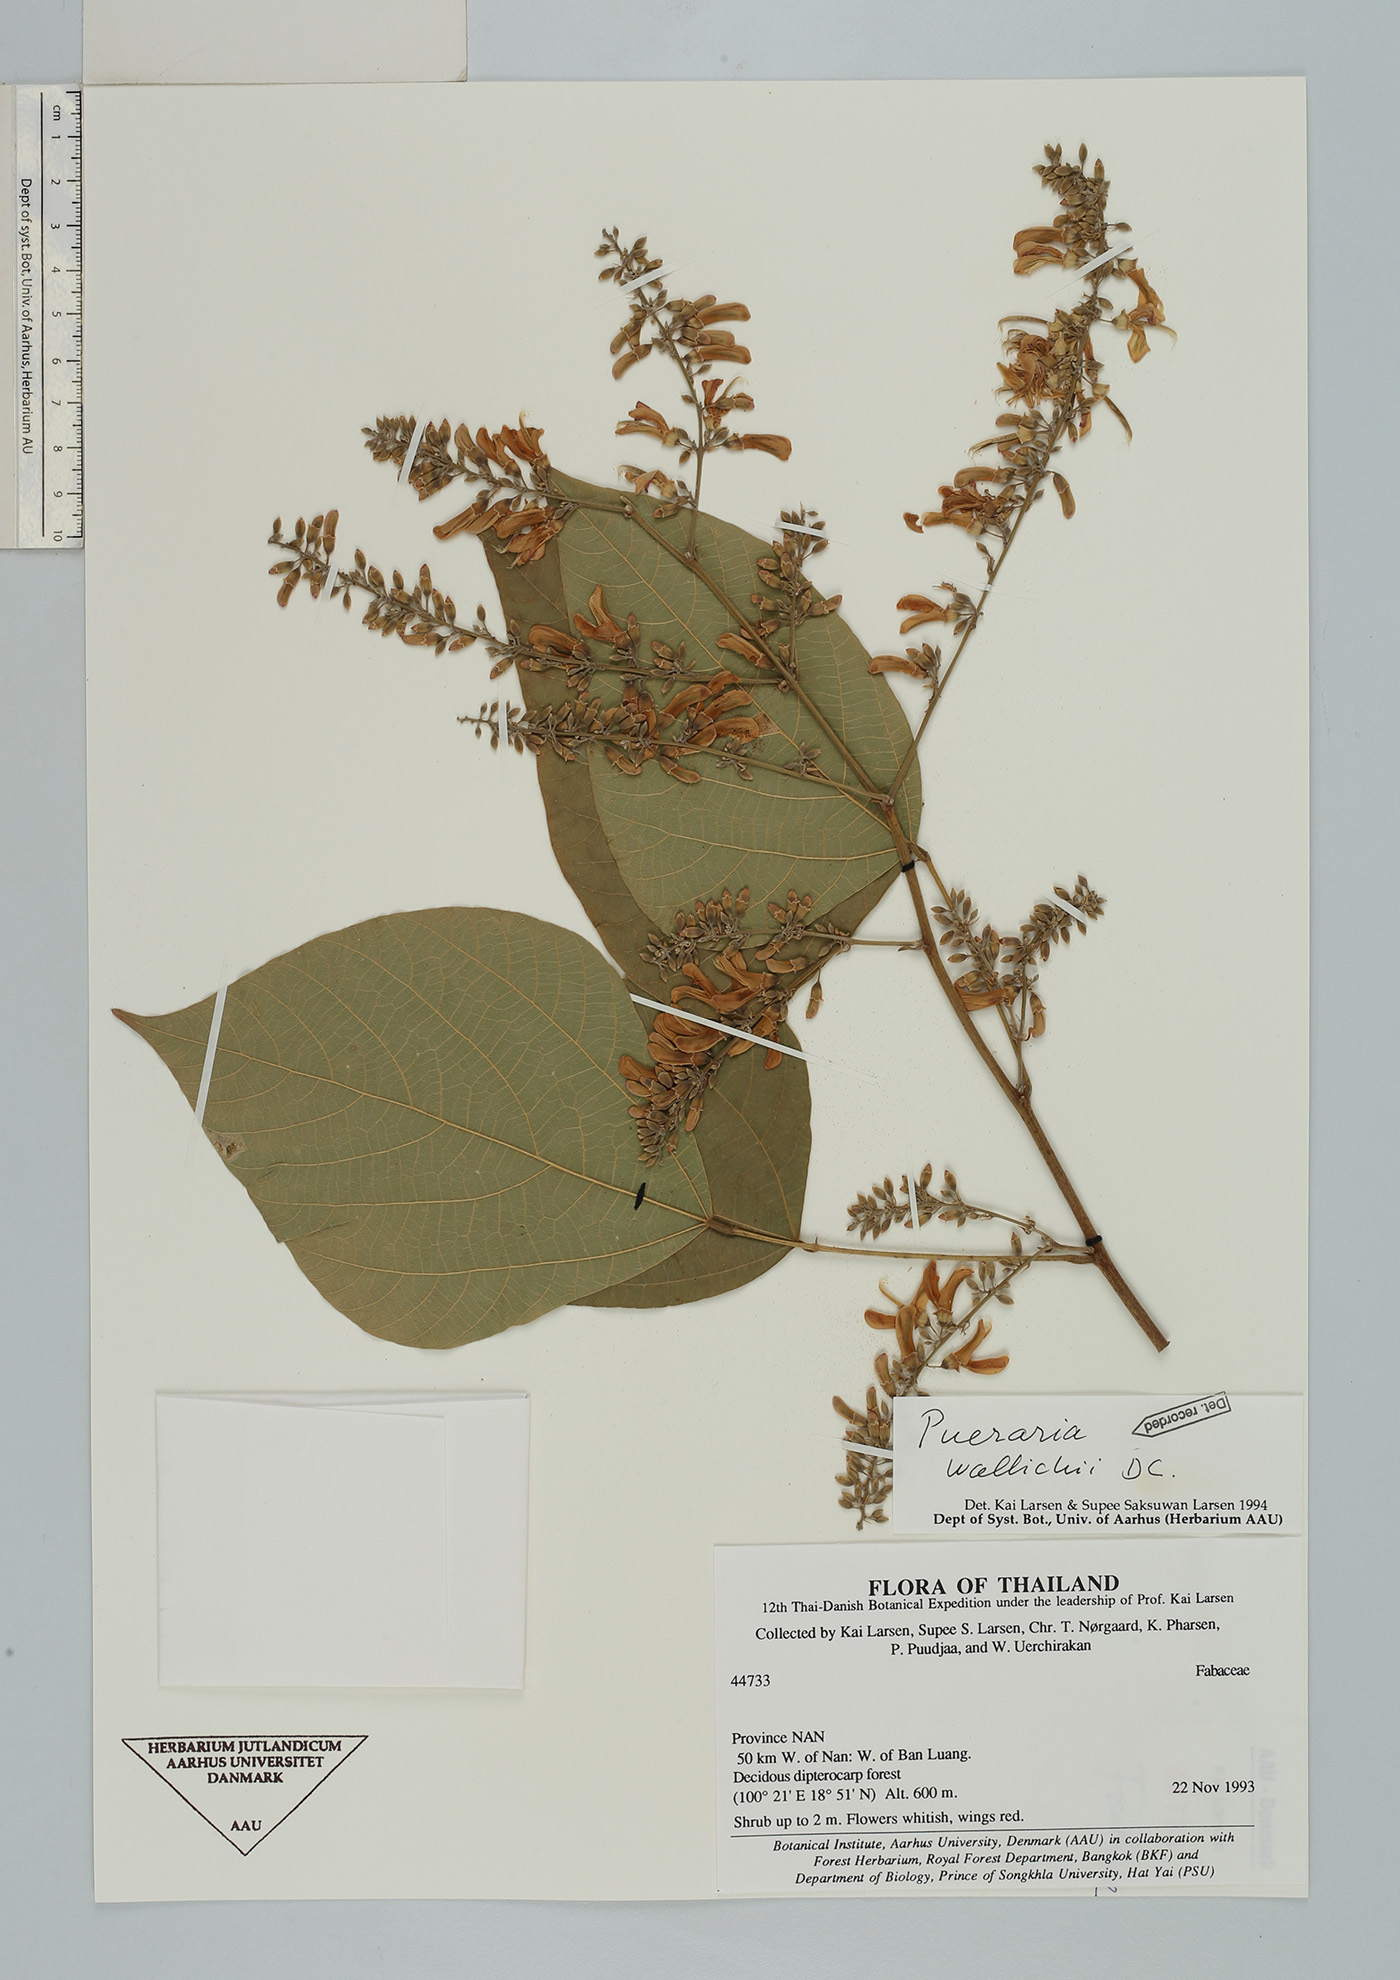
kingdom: Plantae
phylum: Tracheophyta
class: Magnoliopsida
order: Fabales
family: Fabaceae
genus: Haymondia
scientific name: Haymondia wallichii
